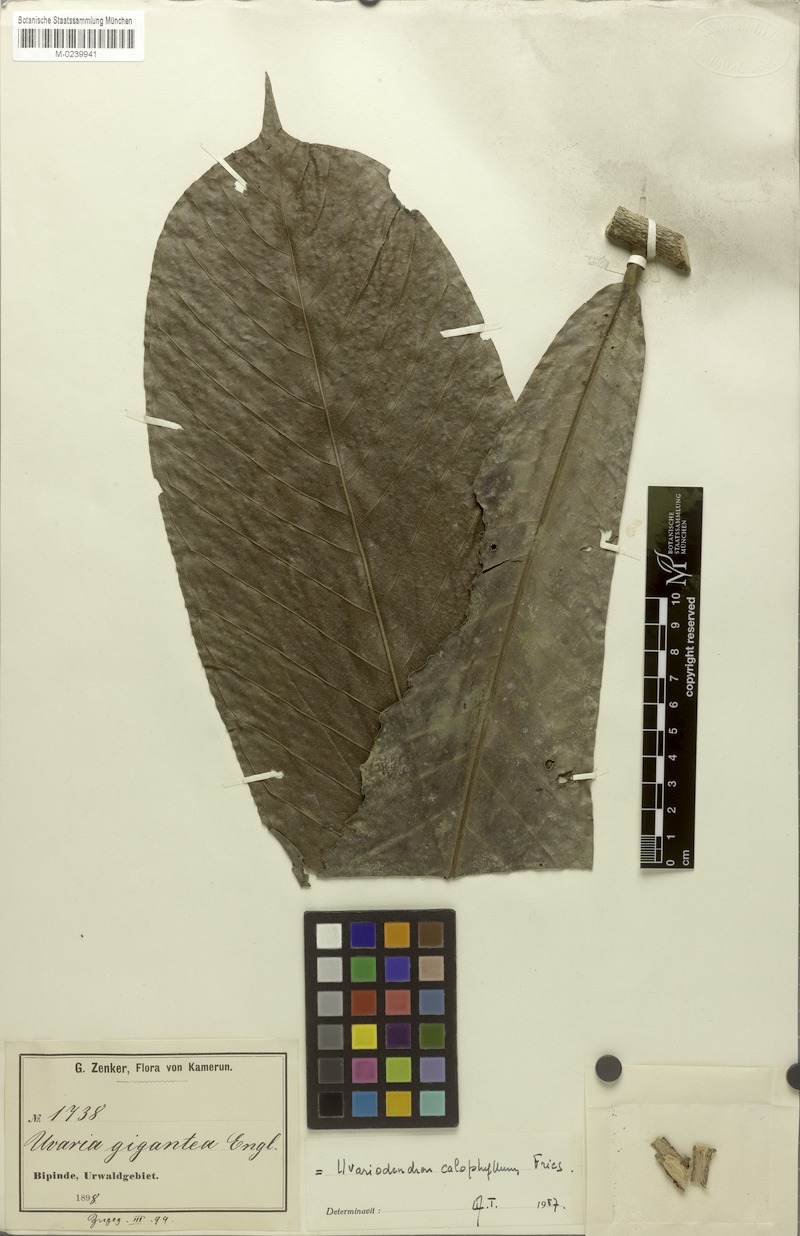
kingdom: Plantae
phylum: Tracheophyta
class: Magnoliopsida
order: Magnoliales
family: Annonaceae
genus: Uvariodendron
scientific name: Uvariodendron calophyllum
